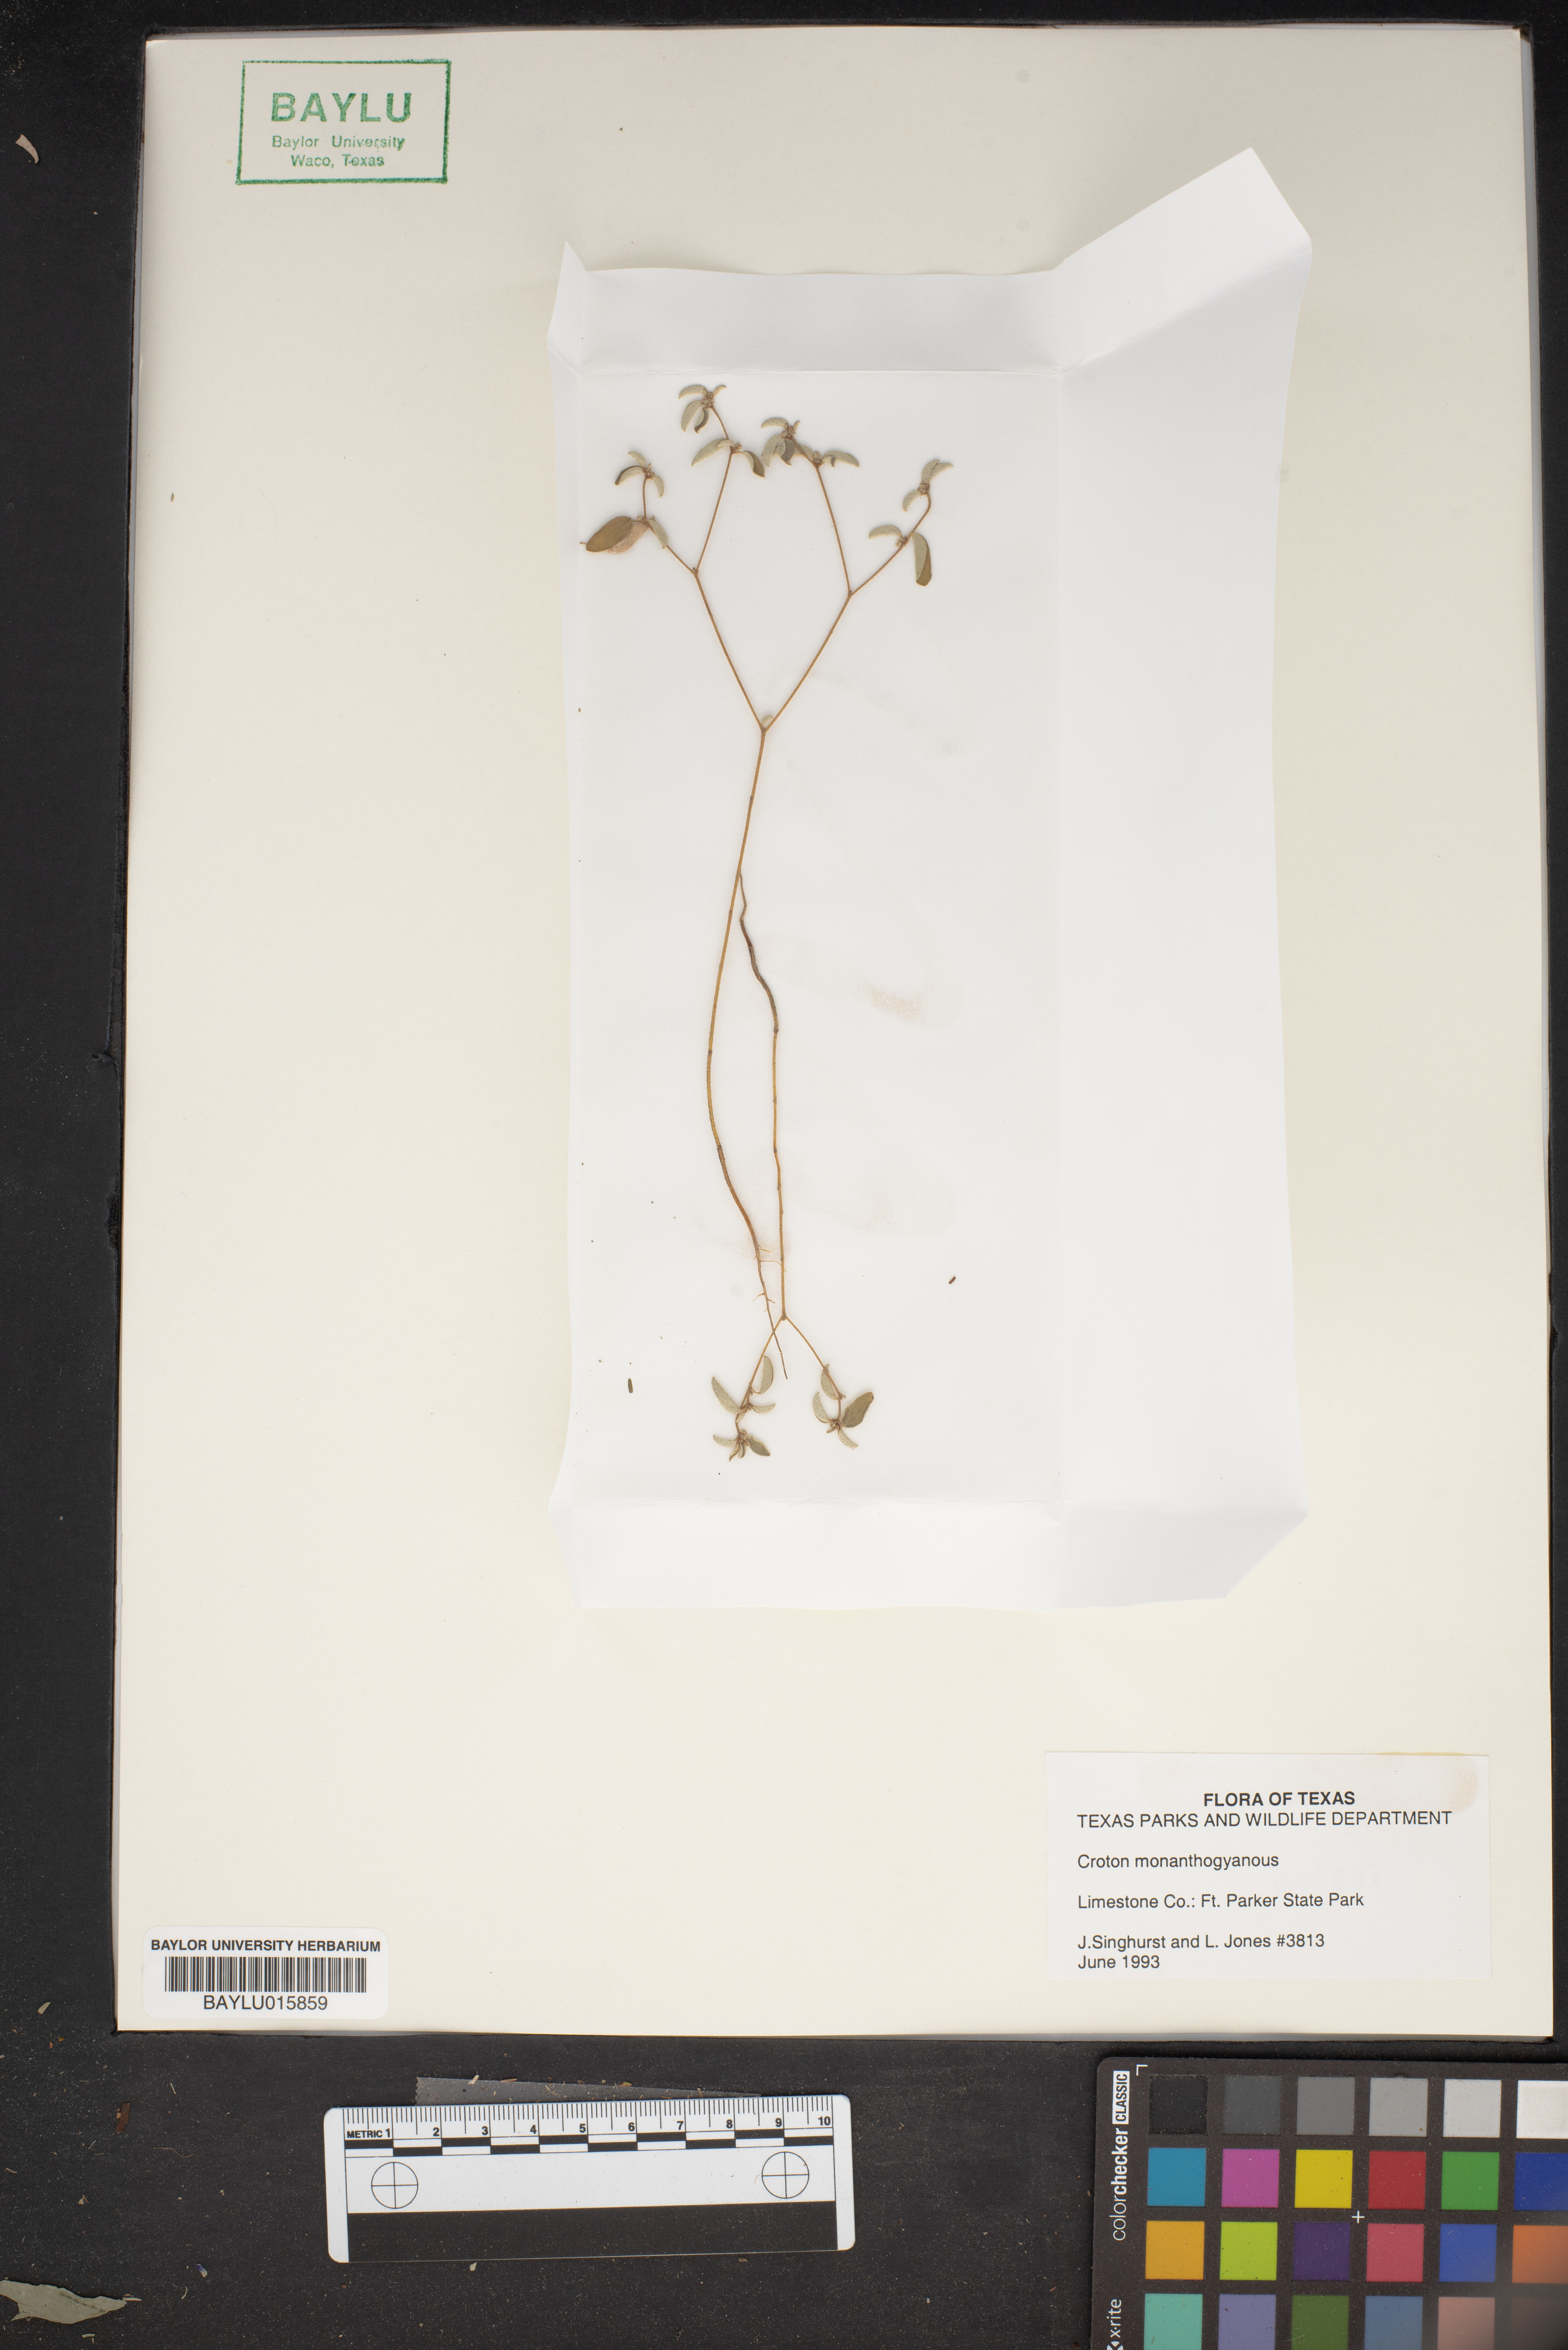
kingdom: Plantae
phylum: Tracheophyta
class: Magnoliopsida
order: Malpighiales
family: Euphorbiaceae
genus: Croton
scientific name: Croton monanthogynus
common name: One-seed croton
